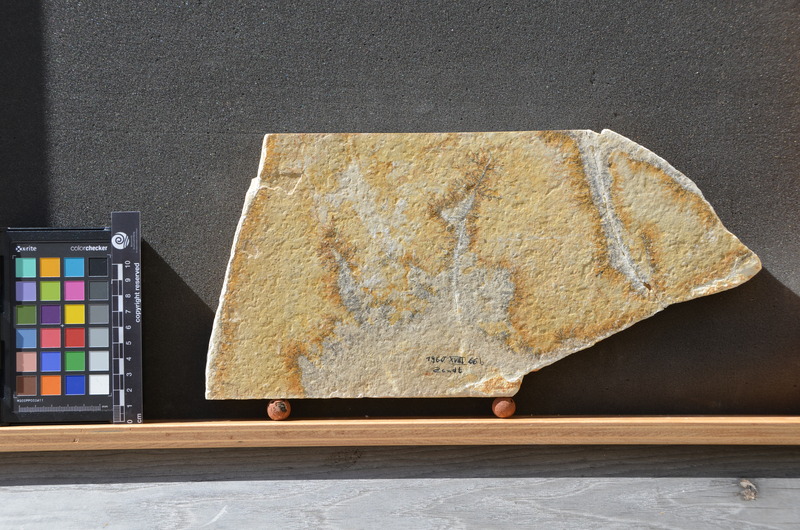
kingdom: Animalia
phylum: Chordata
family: Aspidorhynchidae
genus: Aspidorhynchus
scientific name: Aspidorhynchus
